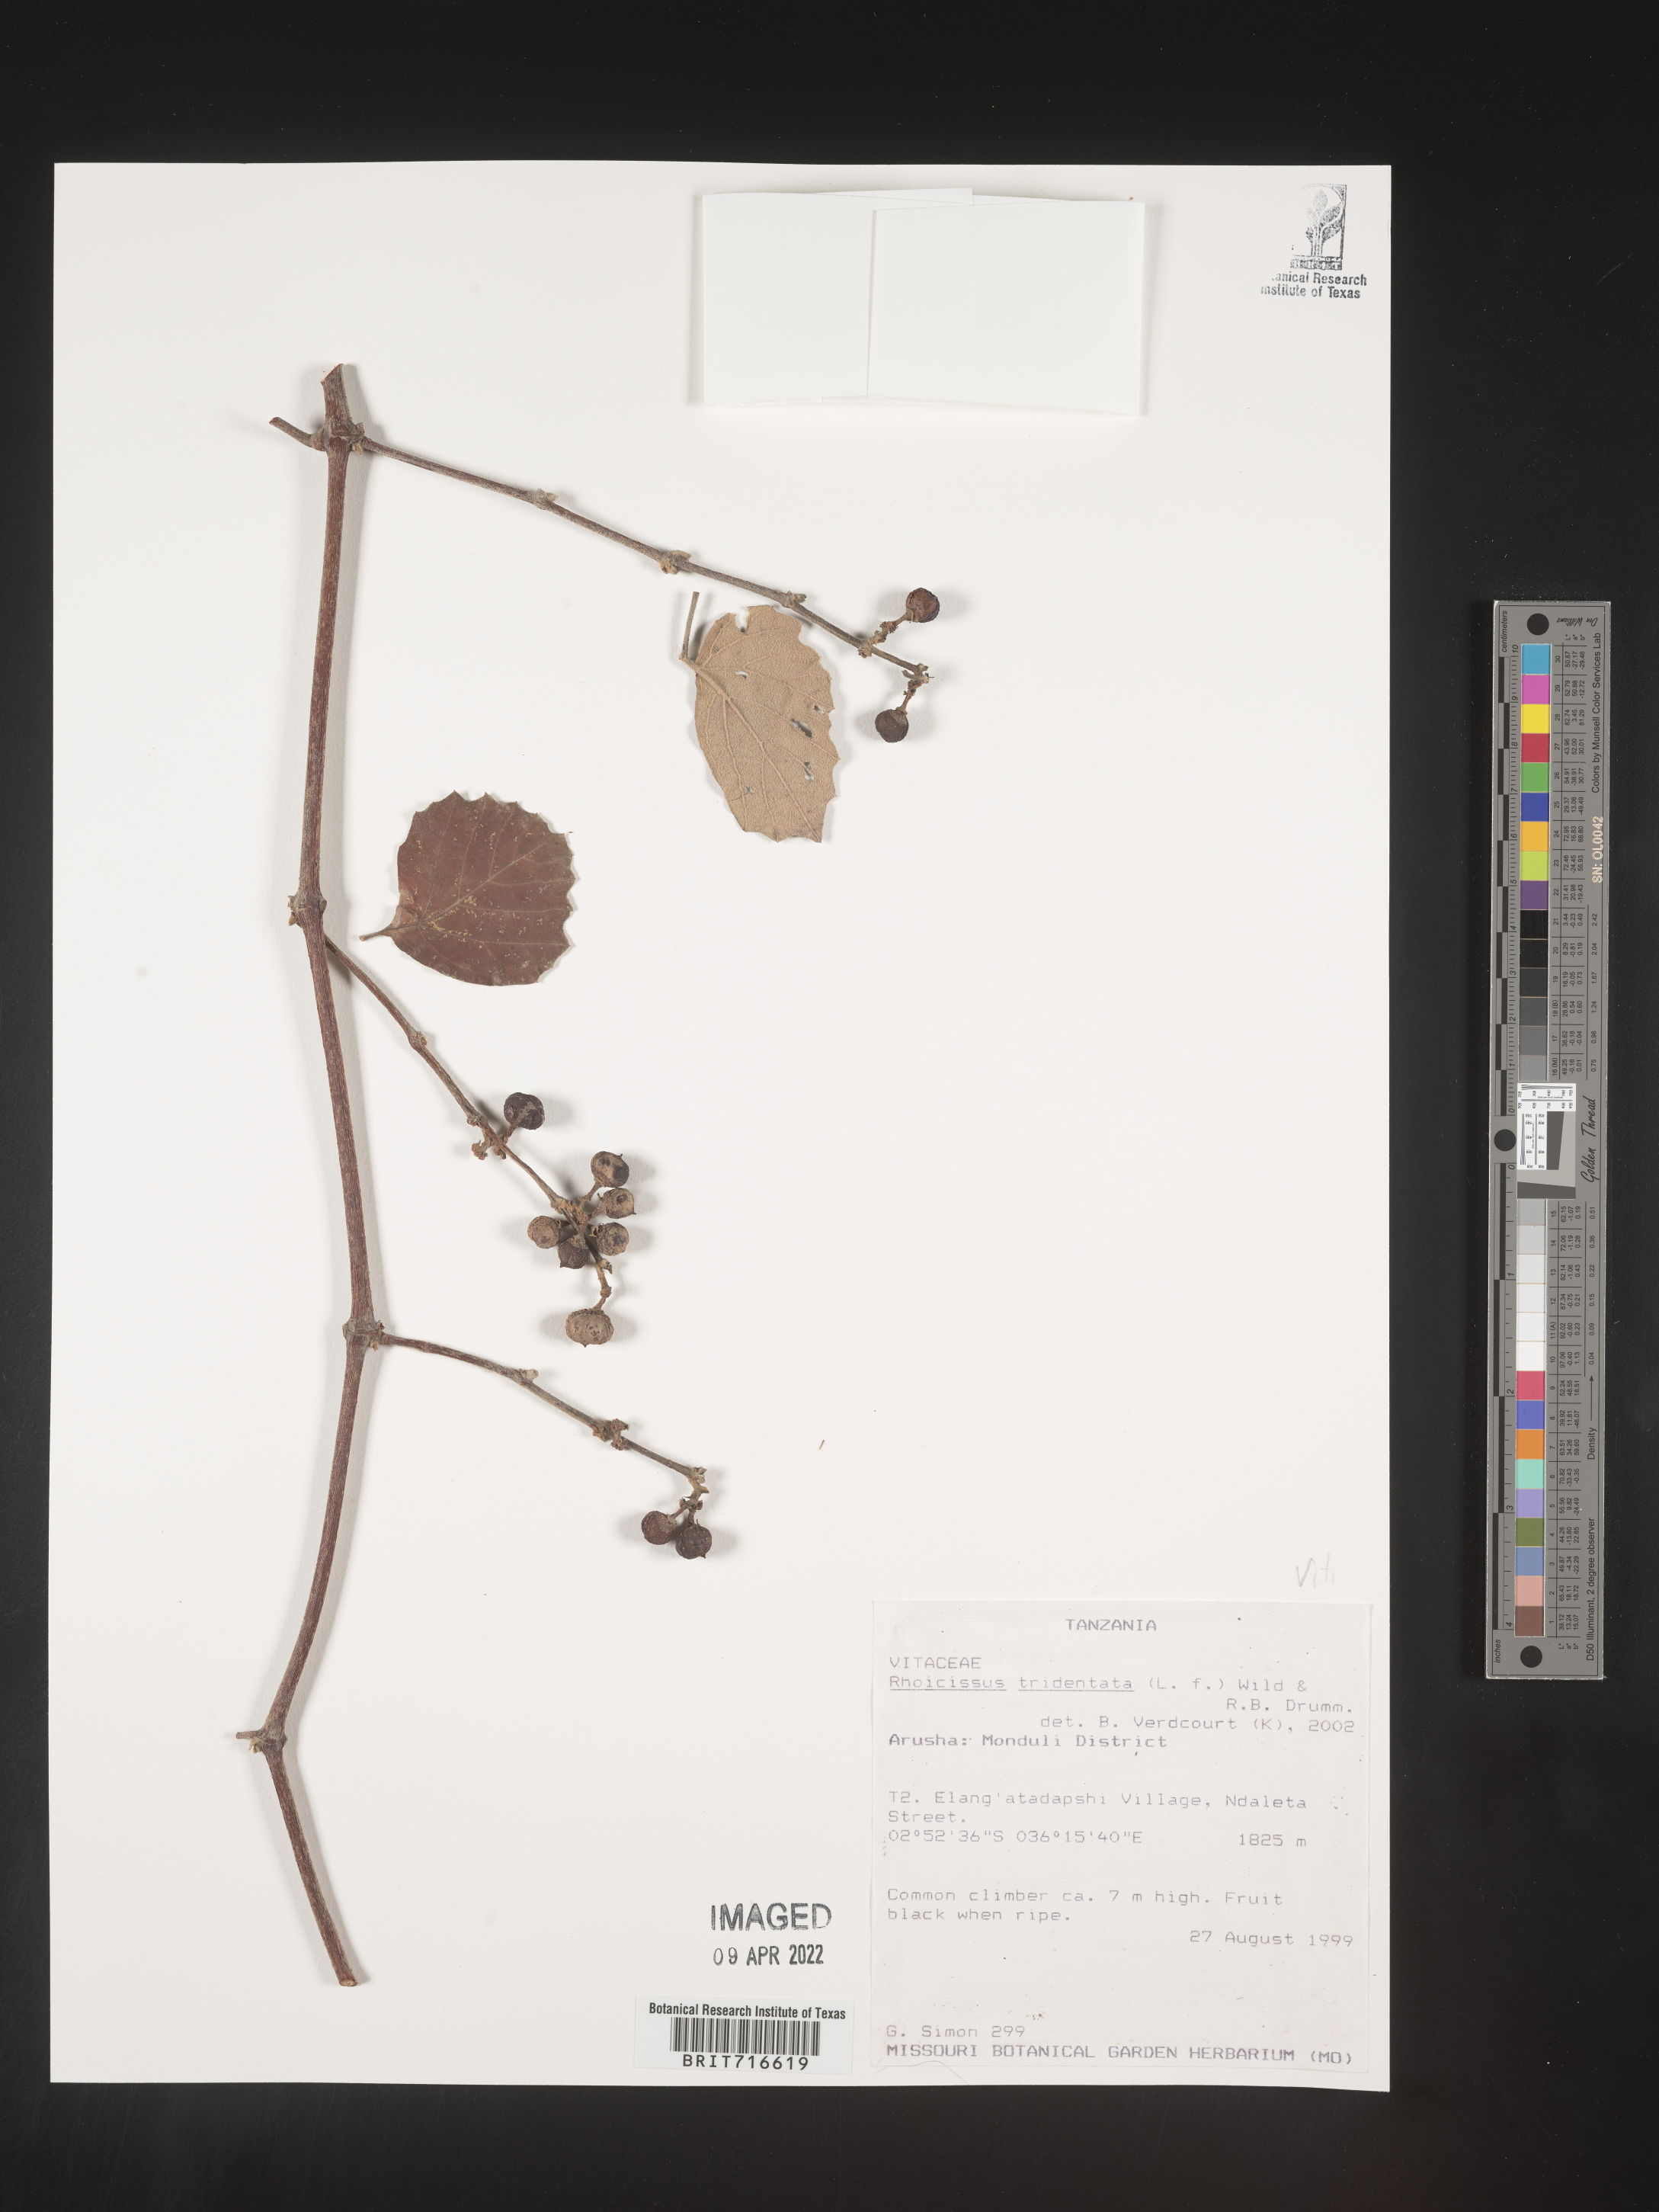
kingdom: Plantae
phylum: Tracheophyta
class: Magnoliopsida
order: Vitales
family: Vitaceae
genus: Rhoicissus
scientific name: Rhoicissus tridentata
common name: Common forest grape
